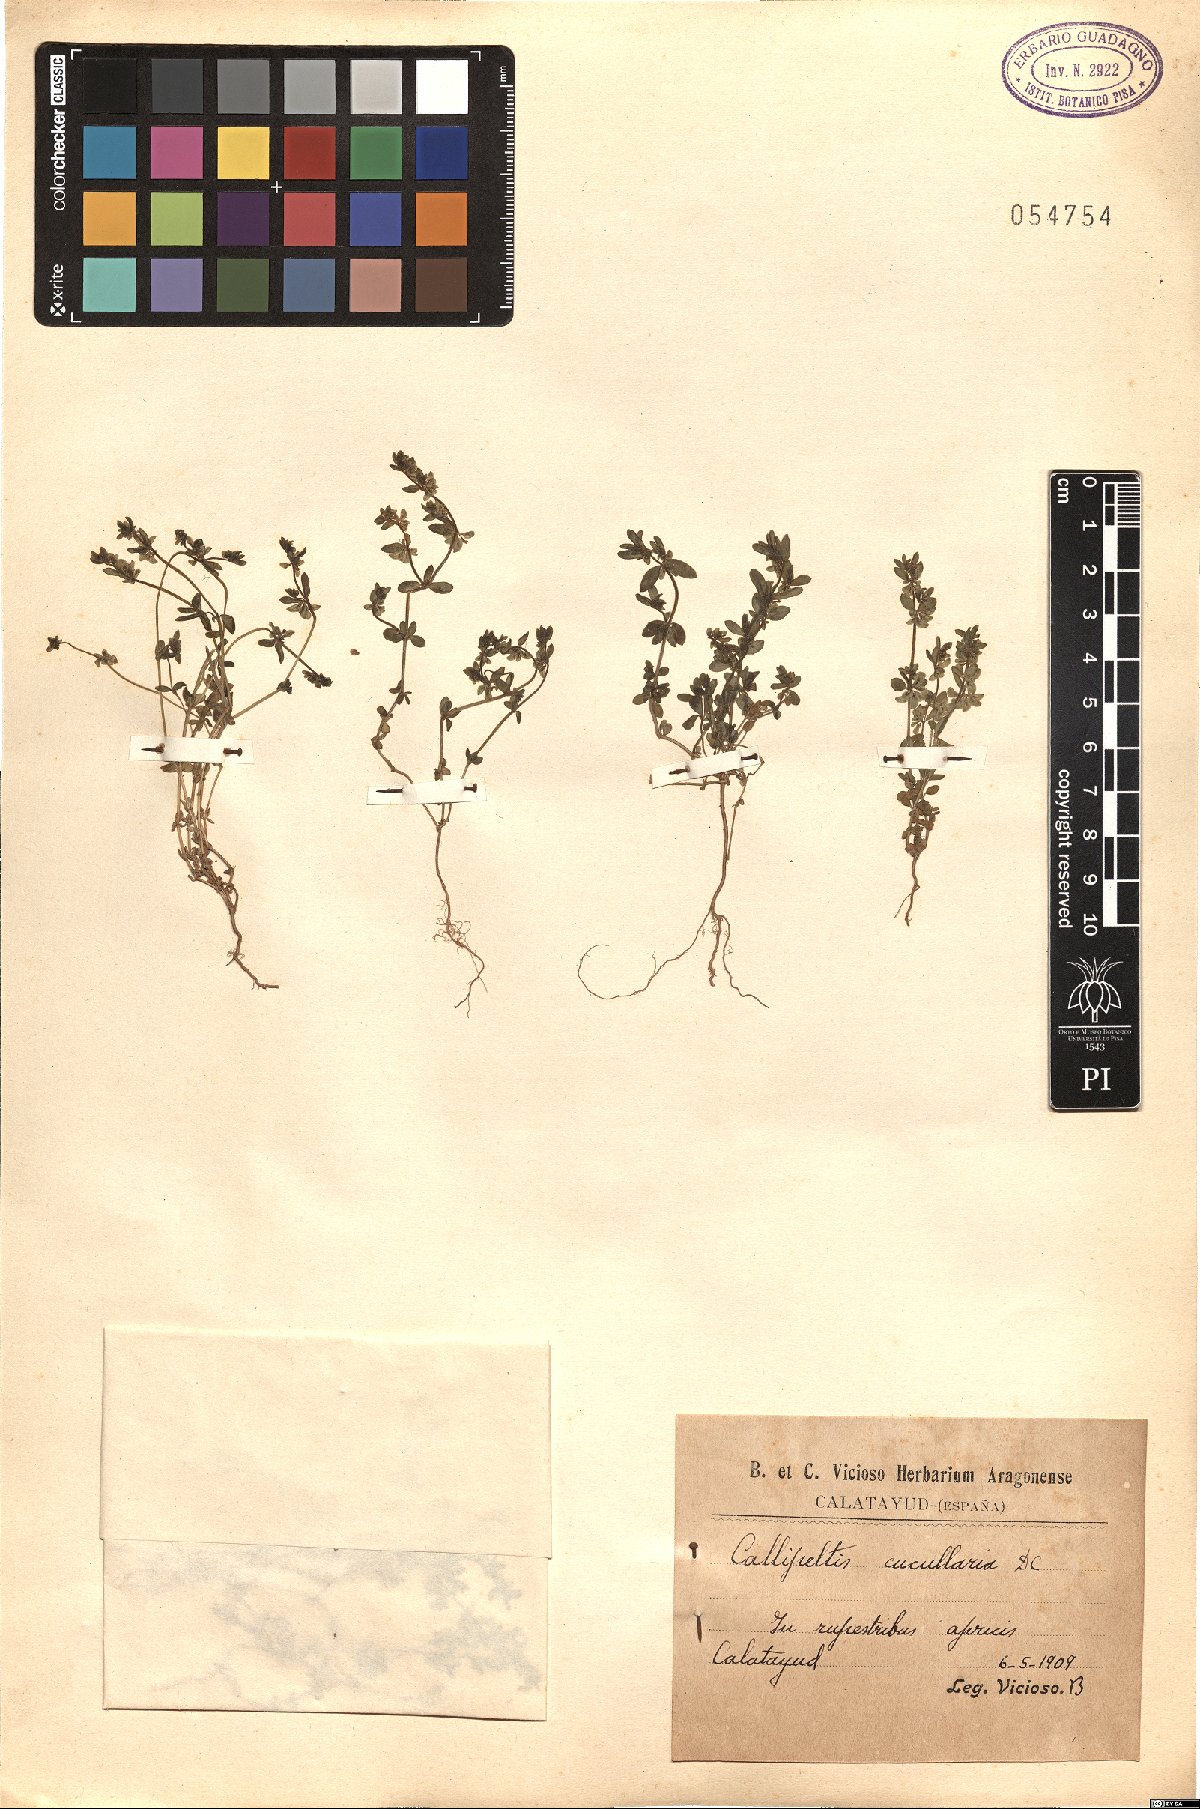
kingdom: Plantae
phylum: Tracheophyta
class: Magnoliopsida
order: Gentianales
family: Rubiaceae
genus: Callipeltis
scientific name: Callipeltis cucullaris
